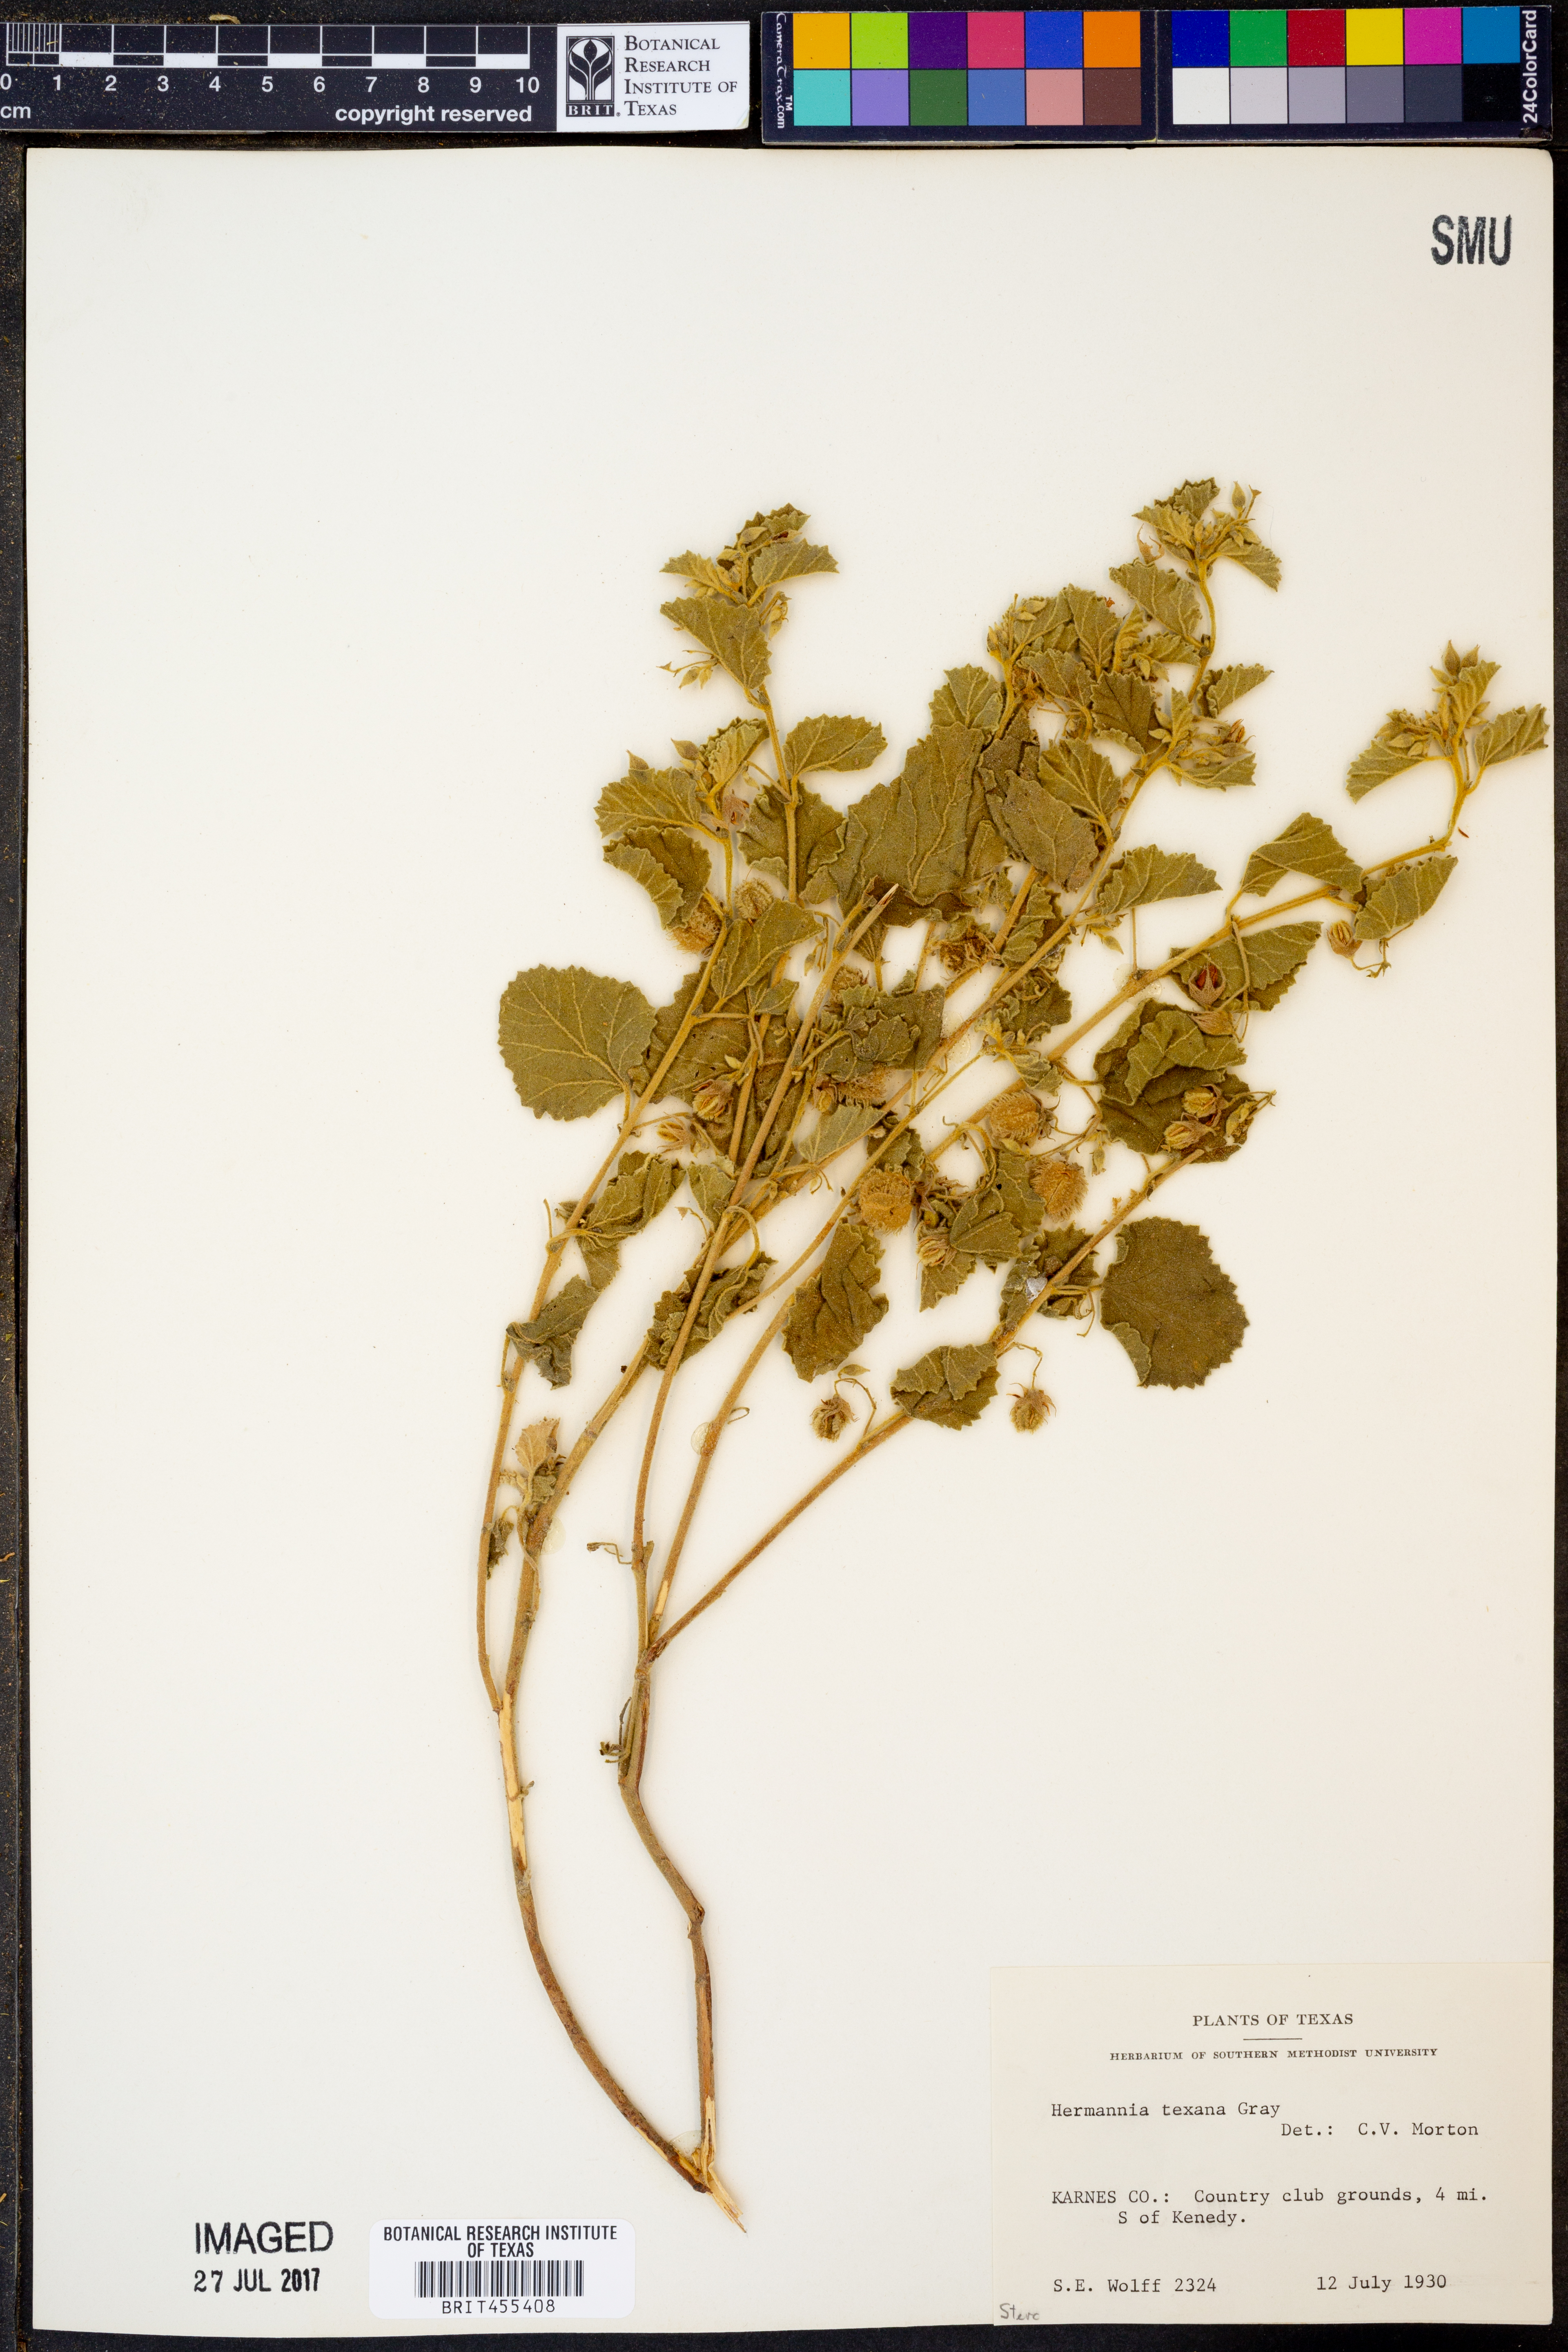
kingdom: Plantae
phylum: Tracheophyta
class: Magnoliopsida
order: Malvales
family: Malvaceae
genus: Hermannia
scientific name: Hermannia texana
